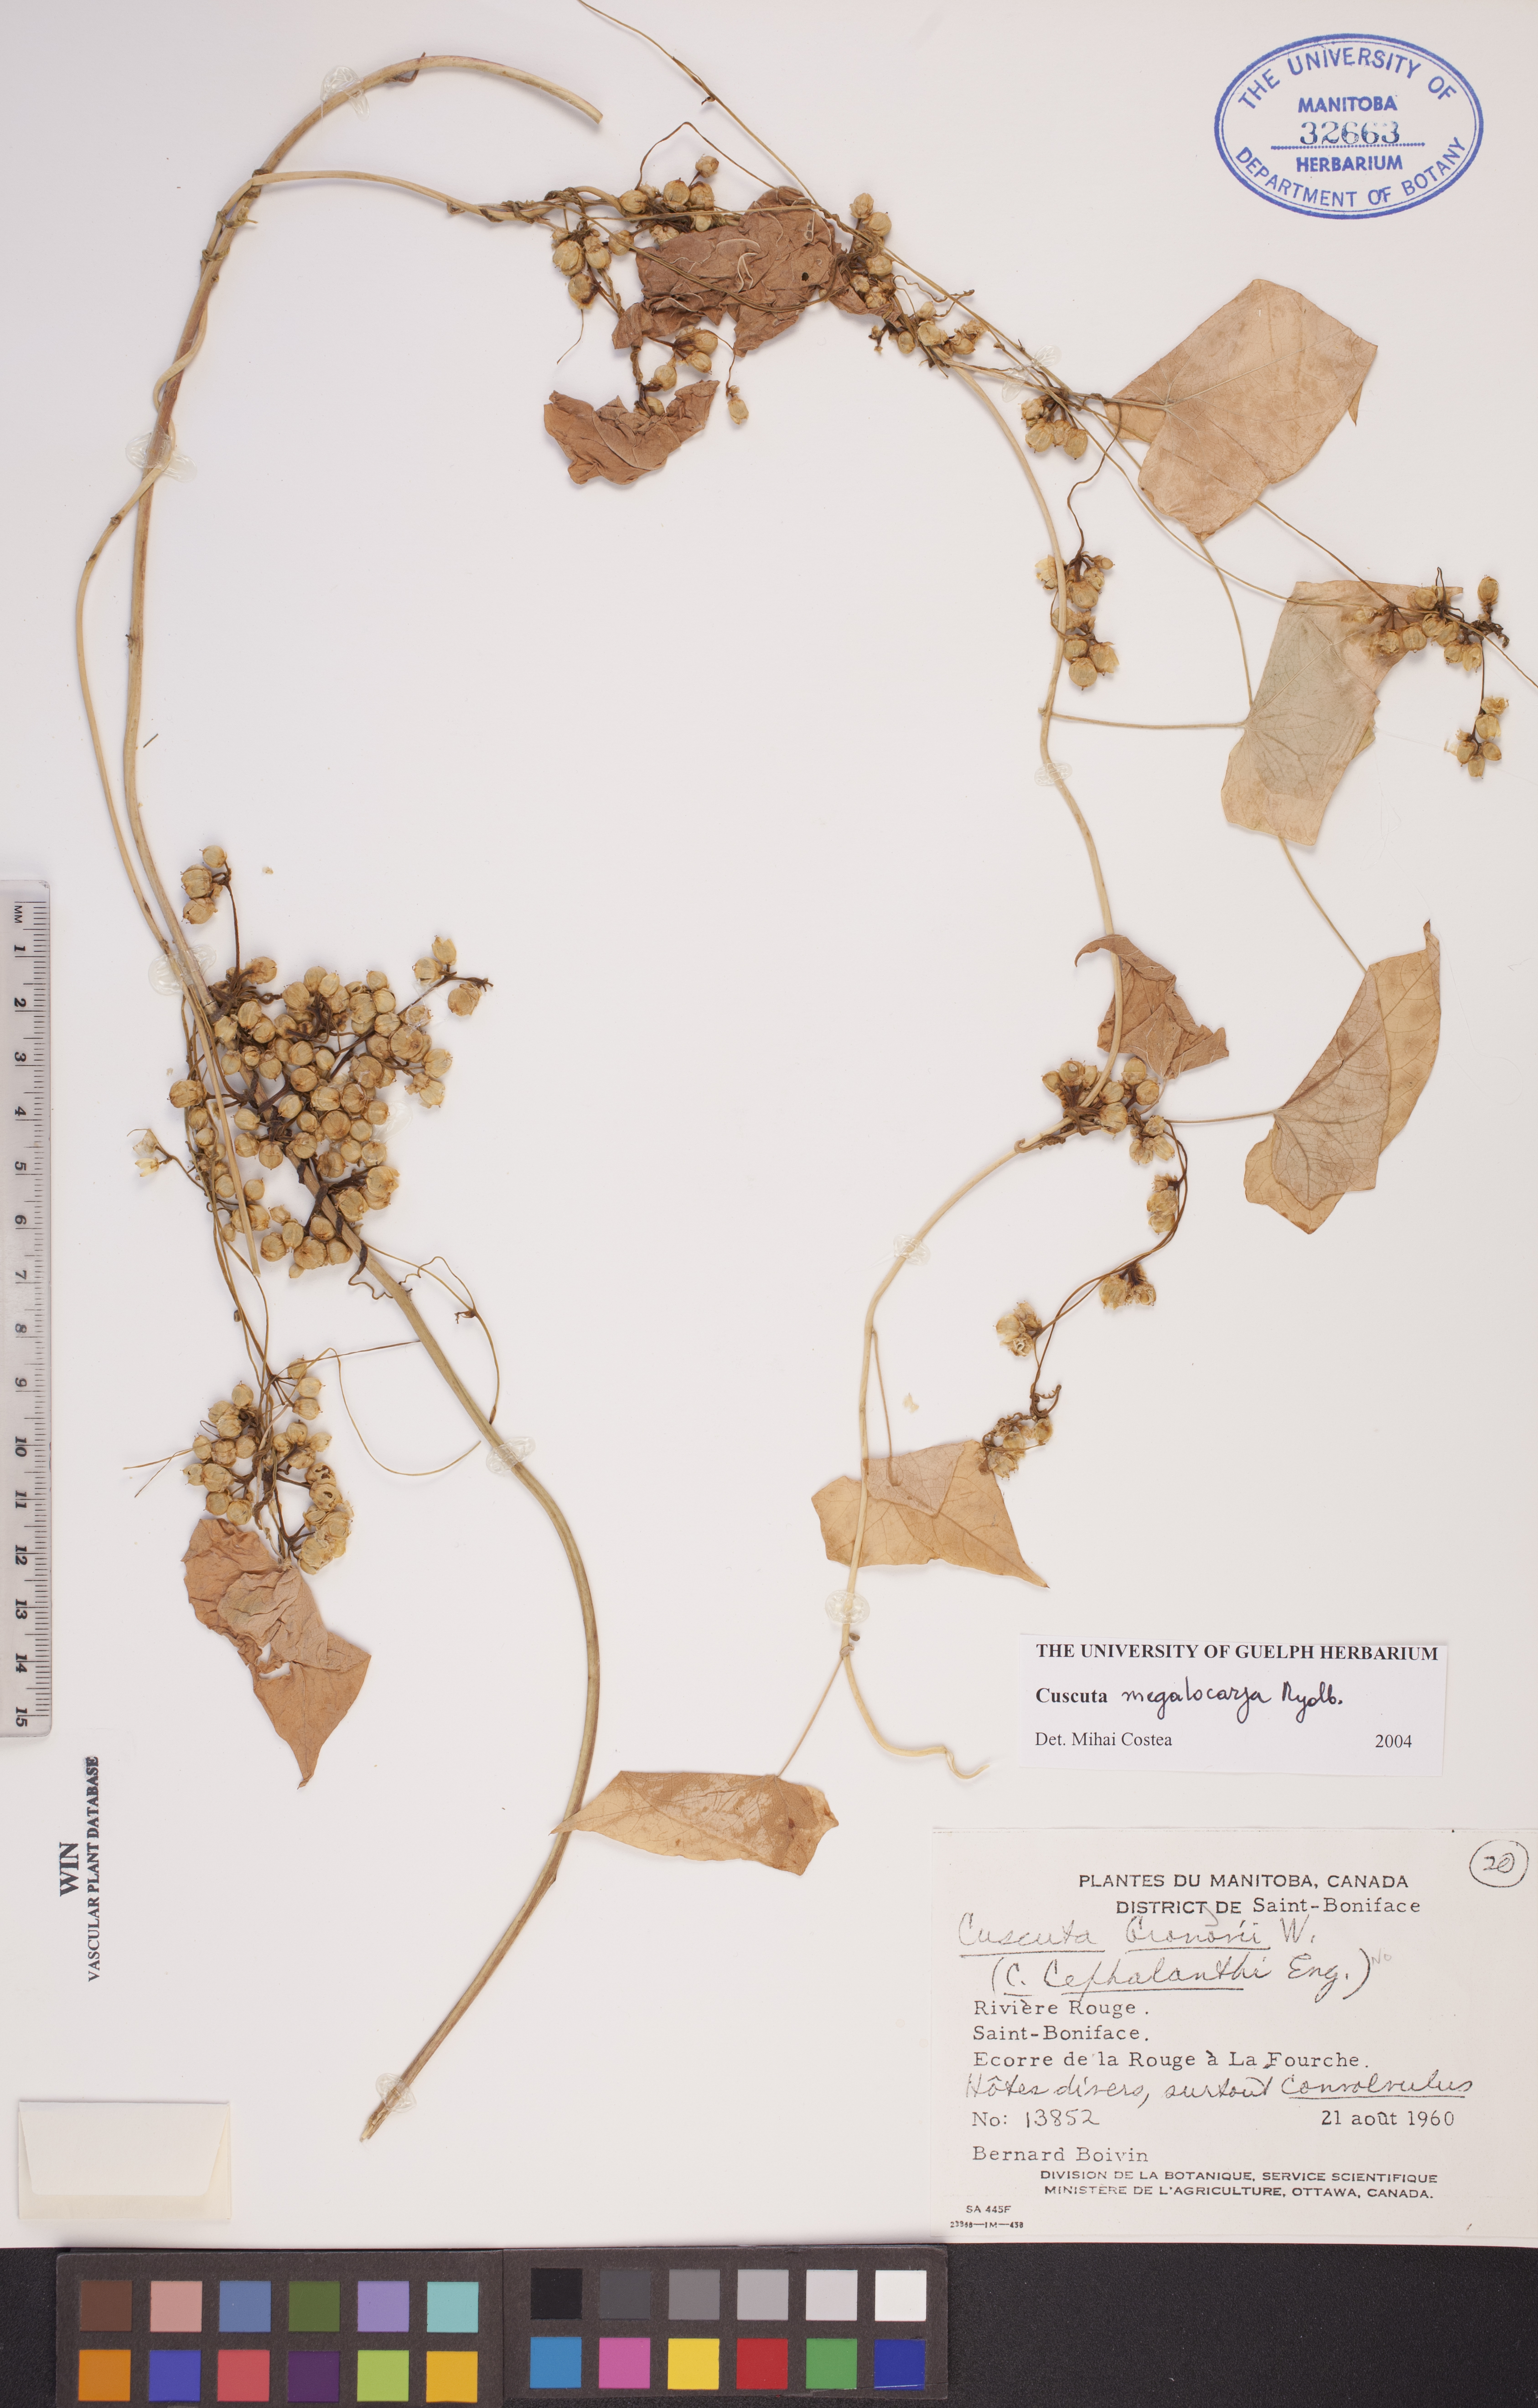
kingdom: Plantae
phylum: Tracheophyta
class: Magnoliopsida
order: Solanales
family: Convolvulaceae
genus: Cuscuta
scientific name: Cuscuta umbrosa
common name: Bigfruit dodder
